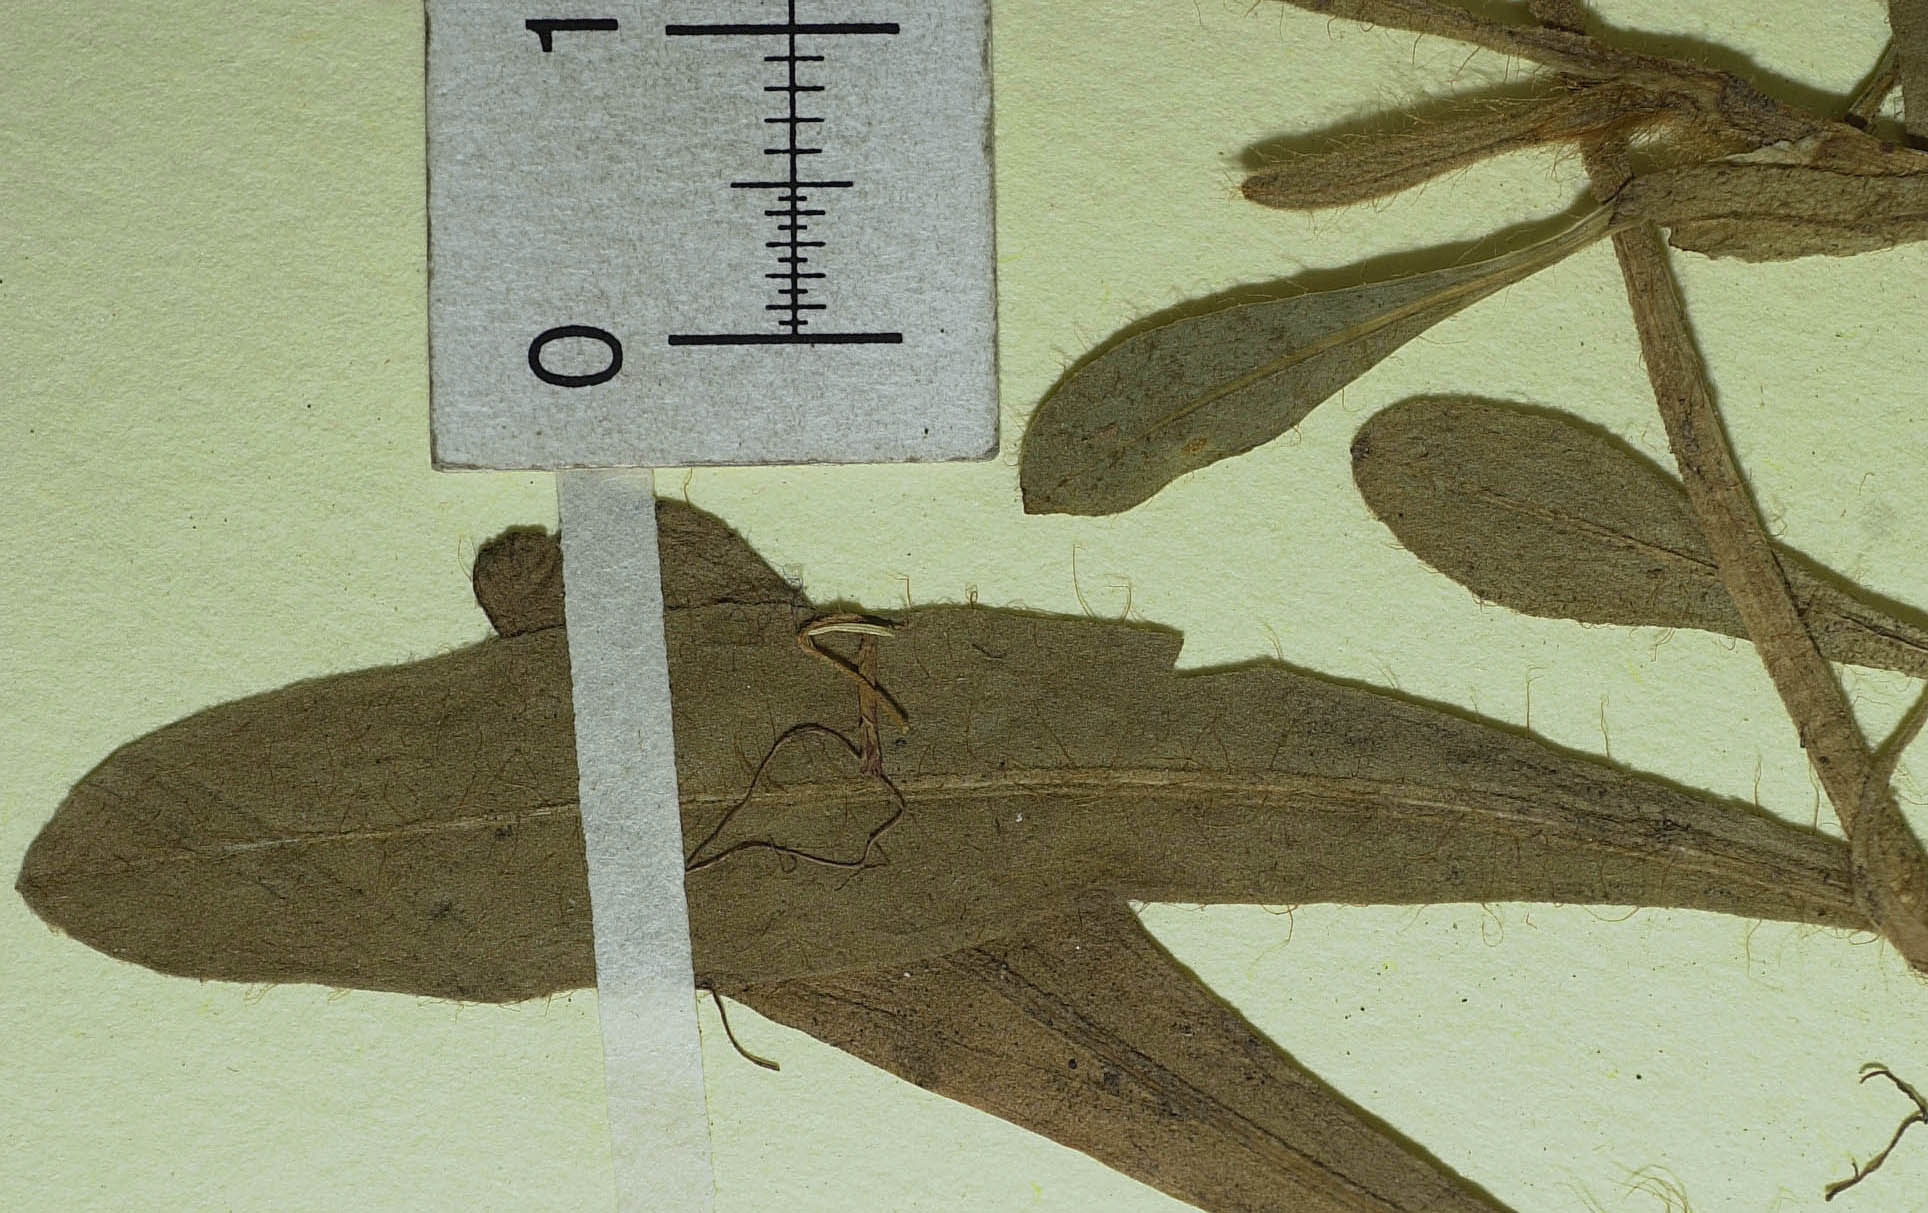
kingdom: Plantae
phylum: Tracheophyta
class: Magnoliopsida
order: Asterales
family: Asteraceae
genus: Pilosella
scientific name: Pilosella officinarum
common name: Mouse-ear hawkweed
